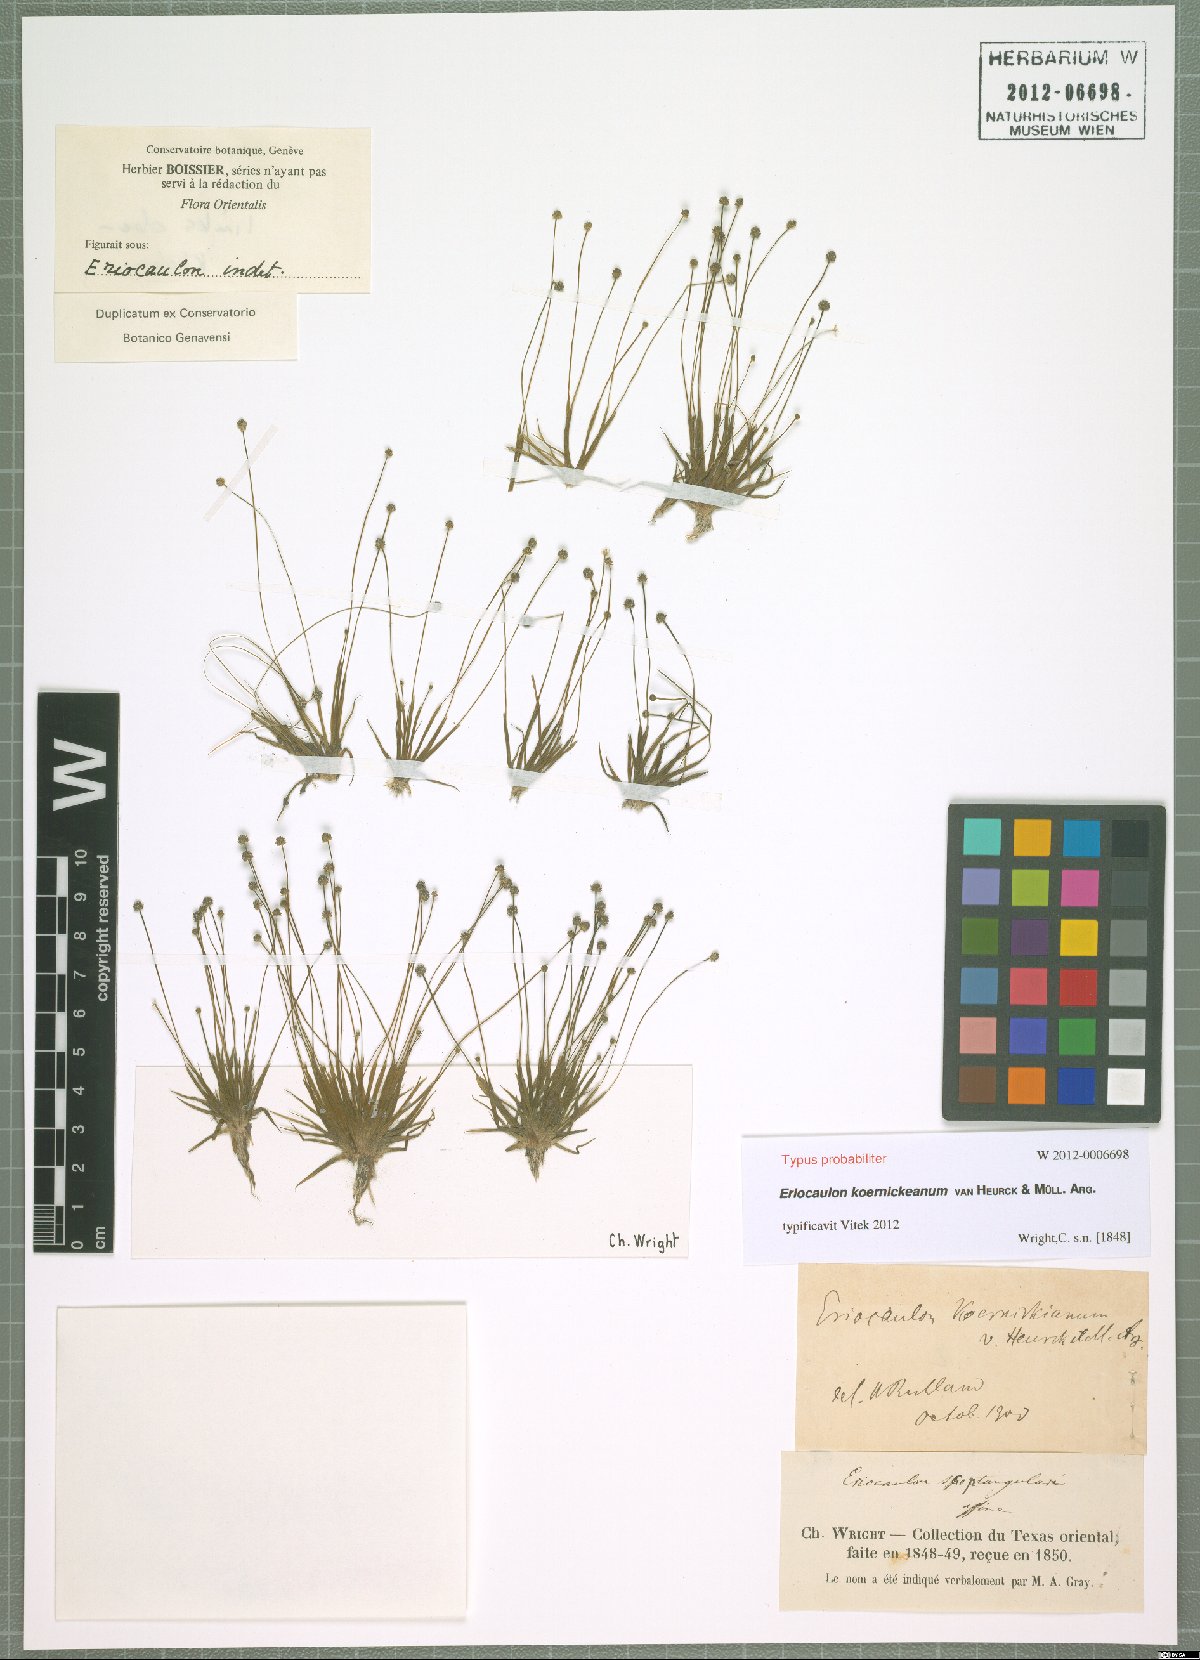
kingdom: Plantae
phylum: Tracheophyta
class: Liliopsida
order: Poales
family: Eriocaulaceae
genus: Eriocaulon
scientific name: Eriocaulon koernickeanum
